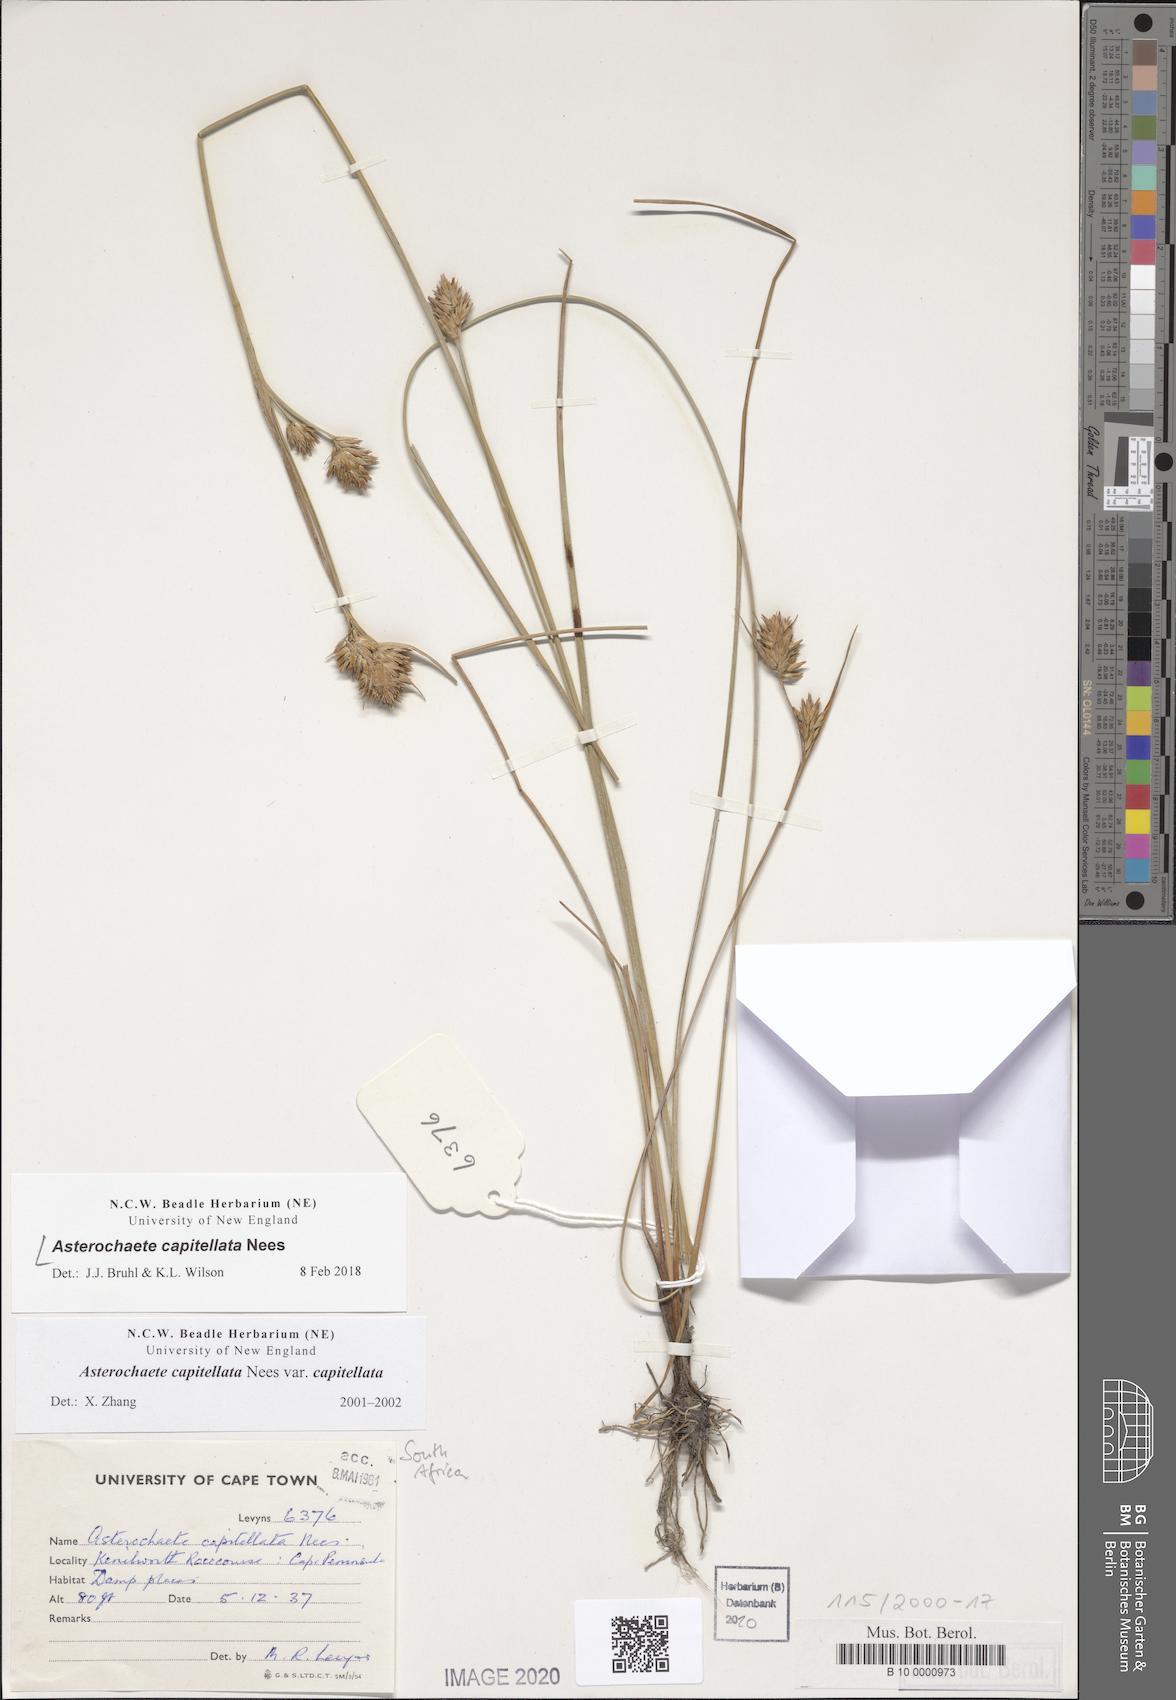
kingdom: Plantae
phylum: Tracheophyta
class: Liliopsida
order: Poales
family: Cyperaceae
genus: Carpha
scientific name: Carpha capitellata
